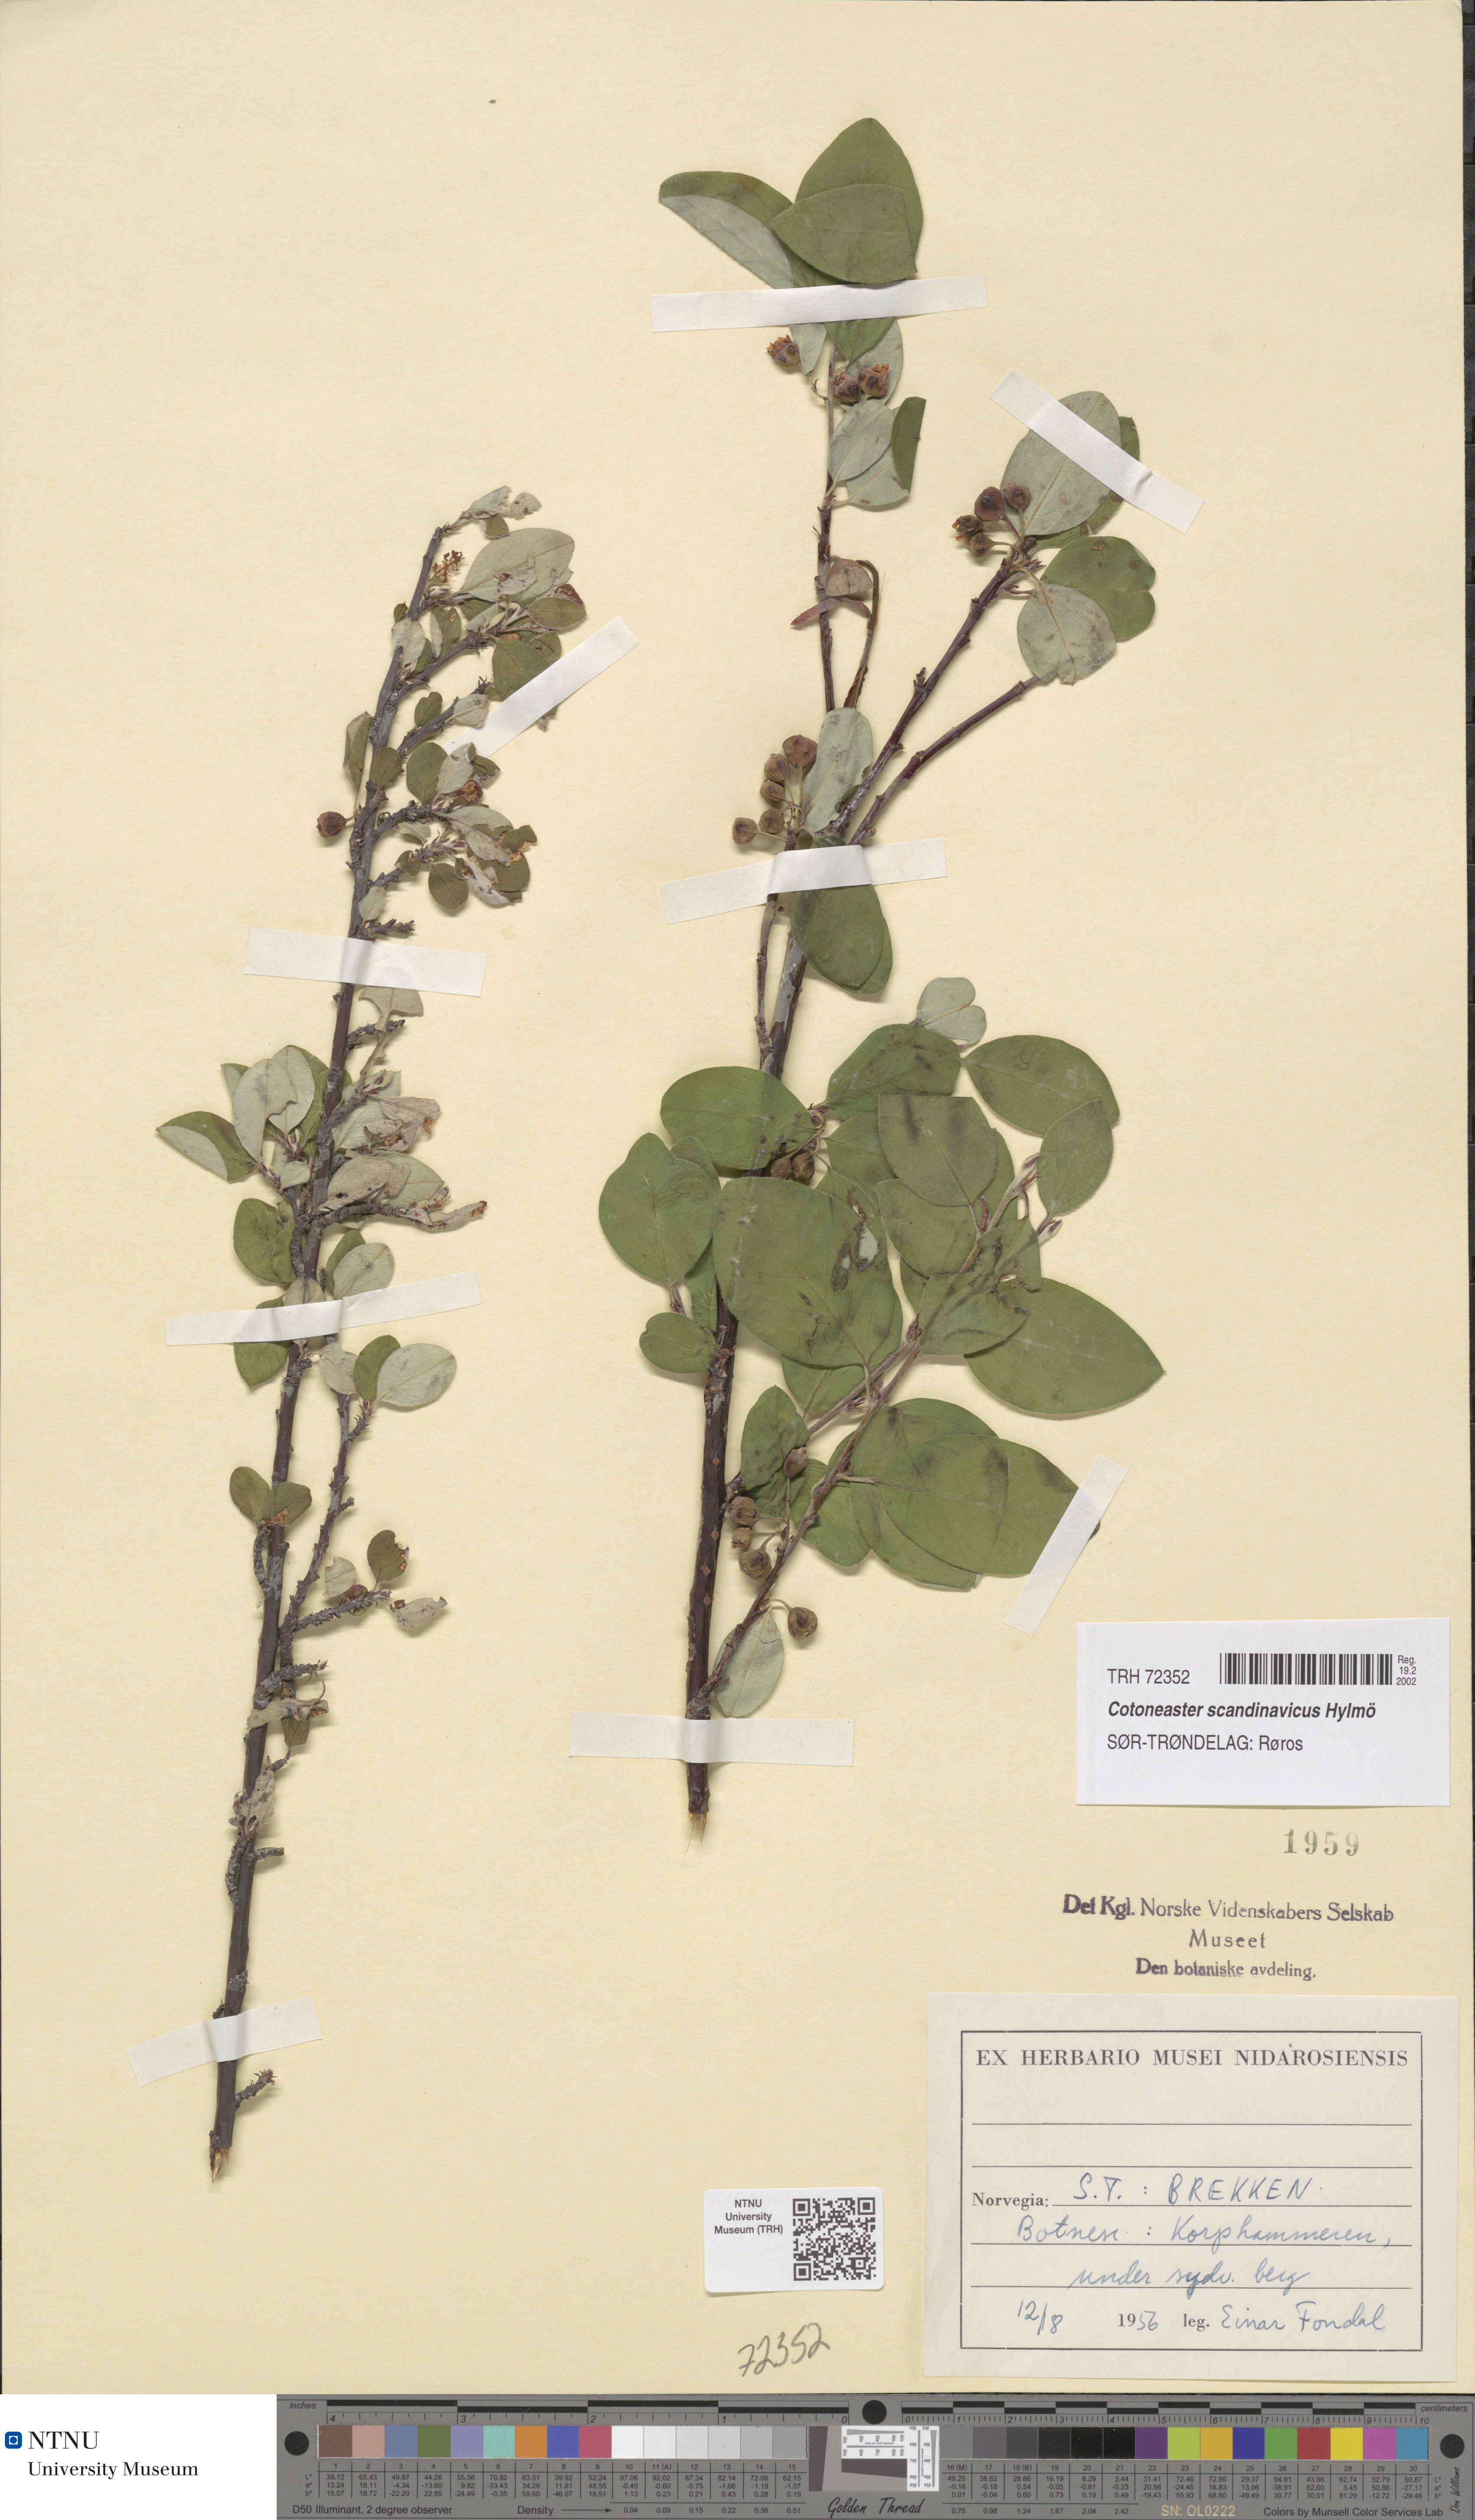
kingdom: Plantae
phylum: Tracheophyta
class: Magnoliopsida
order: Rosales
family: Rosaceae
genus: Cotoneaster
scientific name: Cotoneaster integerrimus
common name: Wild cotoneaster
